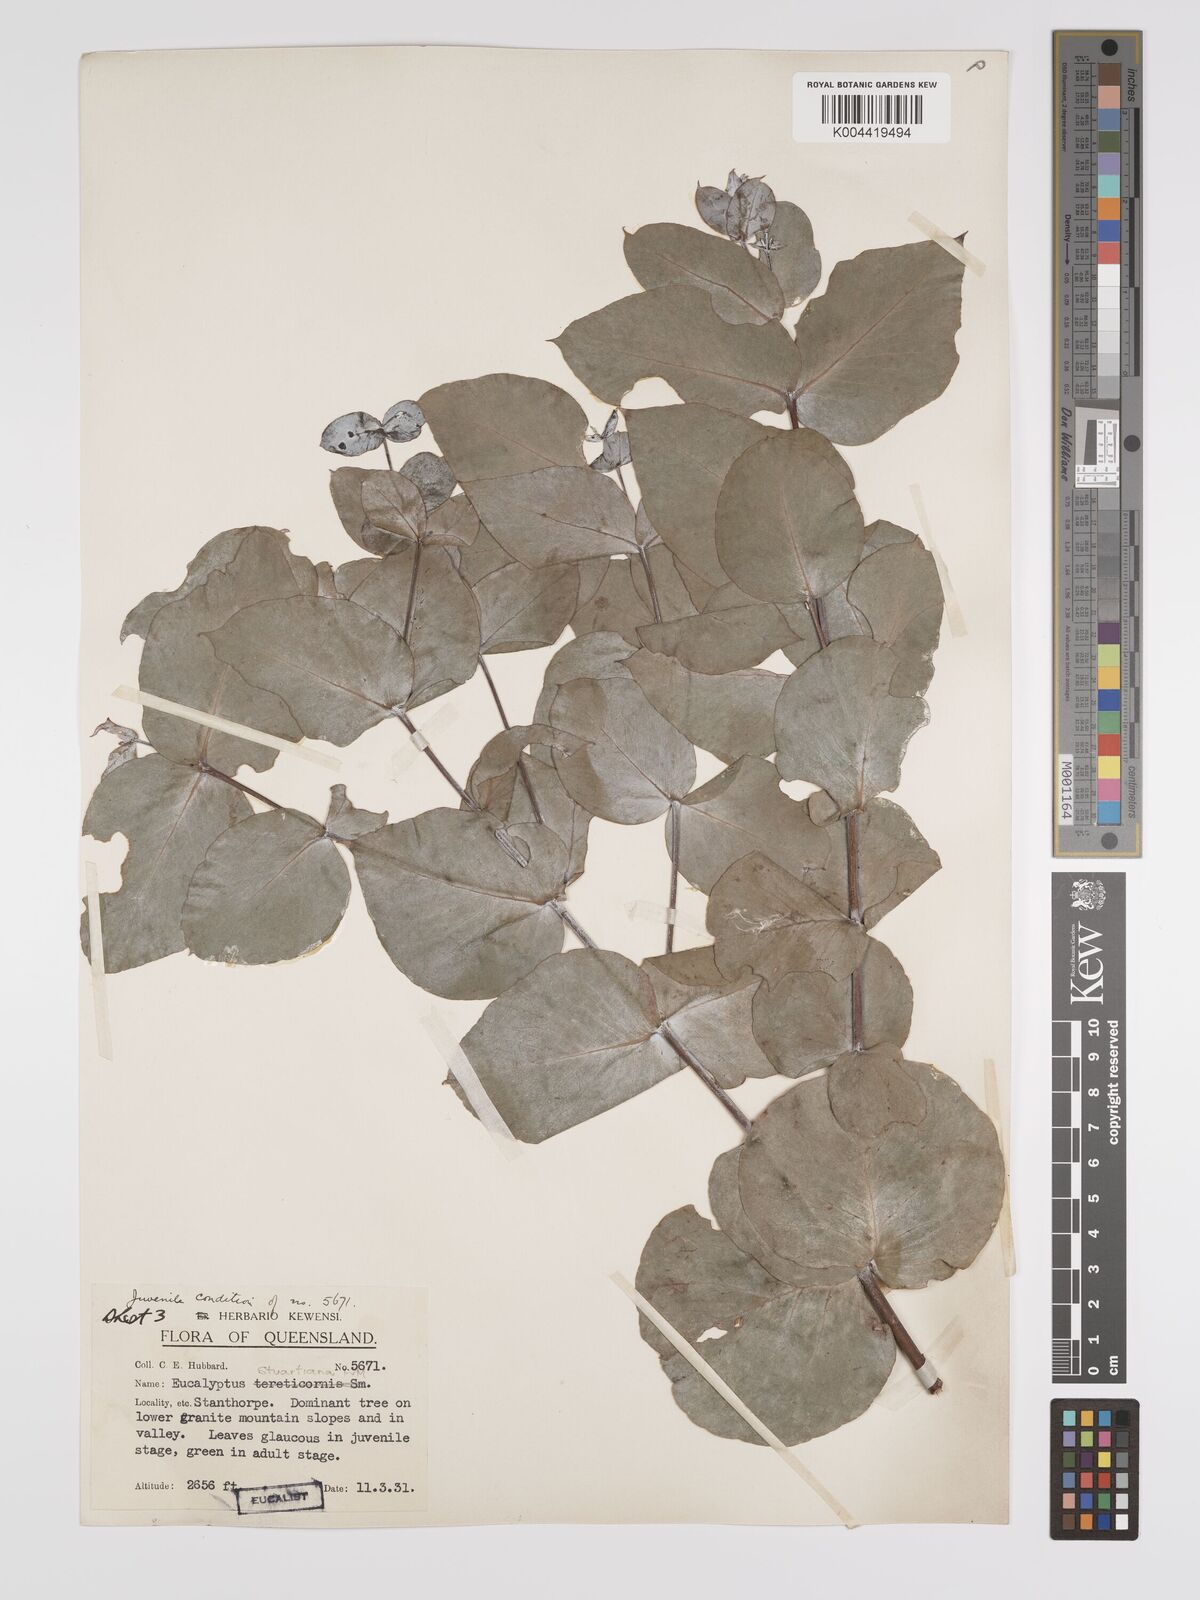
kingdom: Plantae
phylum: Tracheophyta
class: Magnoliopsida
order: Myrtales
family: Myrtaceae
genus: Eucalyptus
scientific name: Eucalyptus bridgesiana
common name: Applebox
